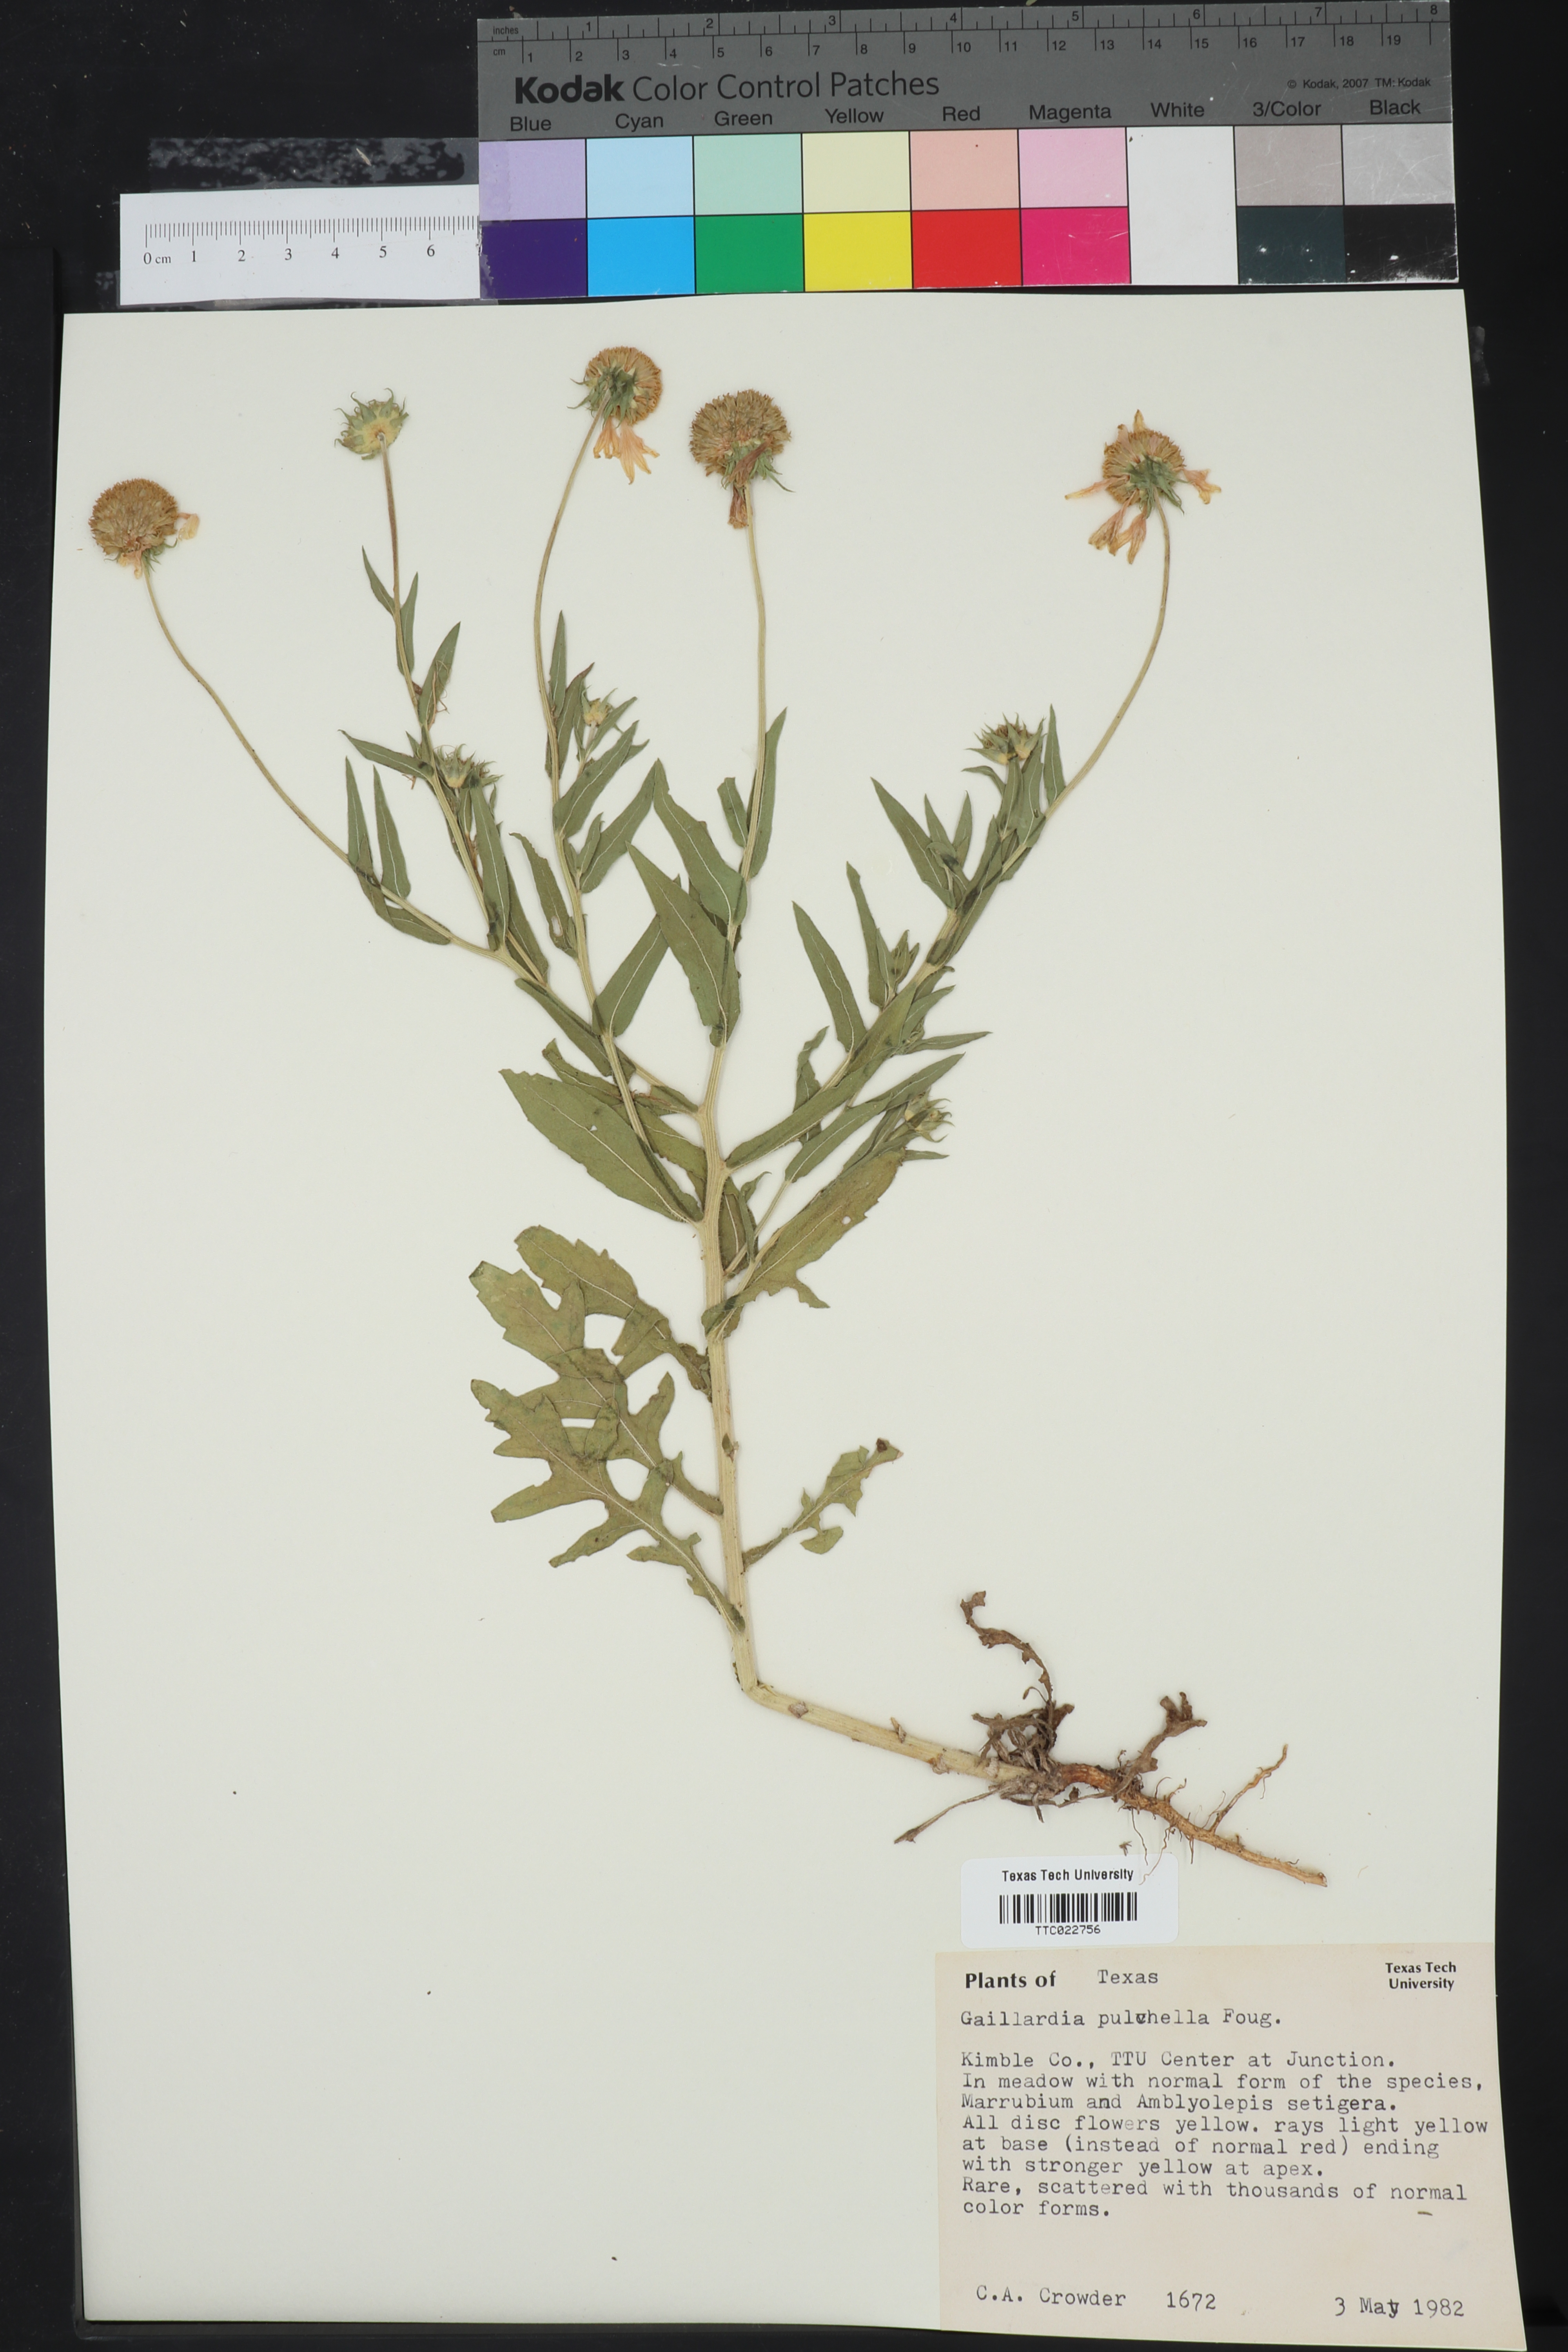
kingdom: Plantae
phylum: Tracheophyta
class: Magnoliopsida
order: Asterales
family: Asteraceae
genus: Gaillardia
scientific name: Gaillardia pulchella
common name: Firewheel
